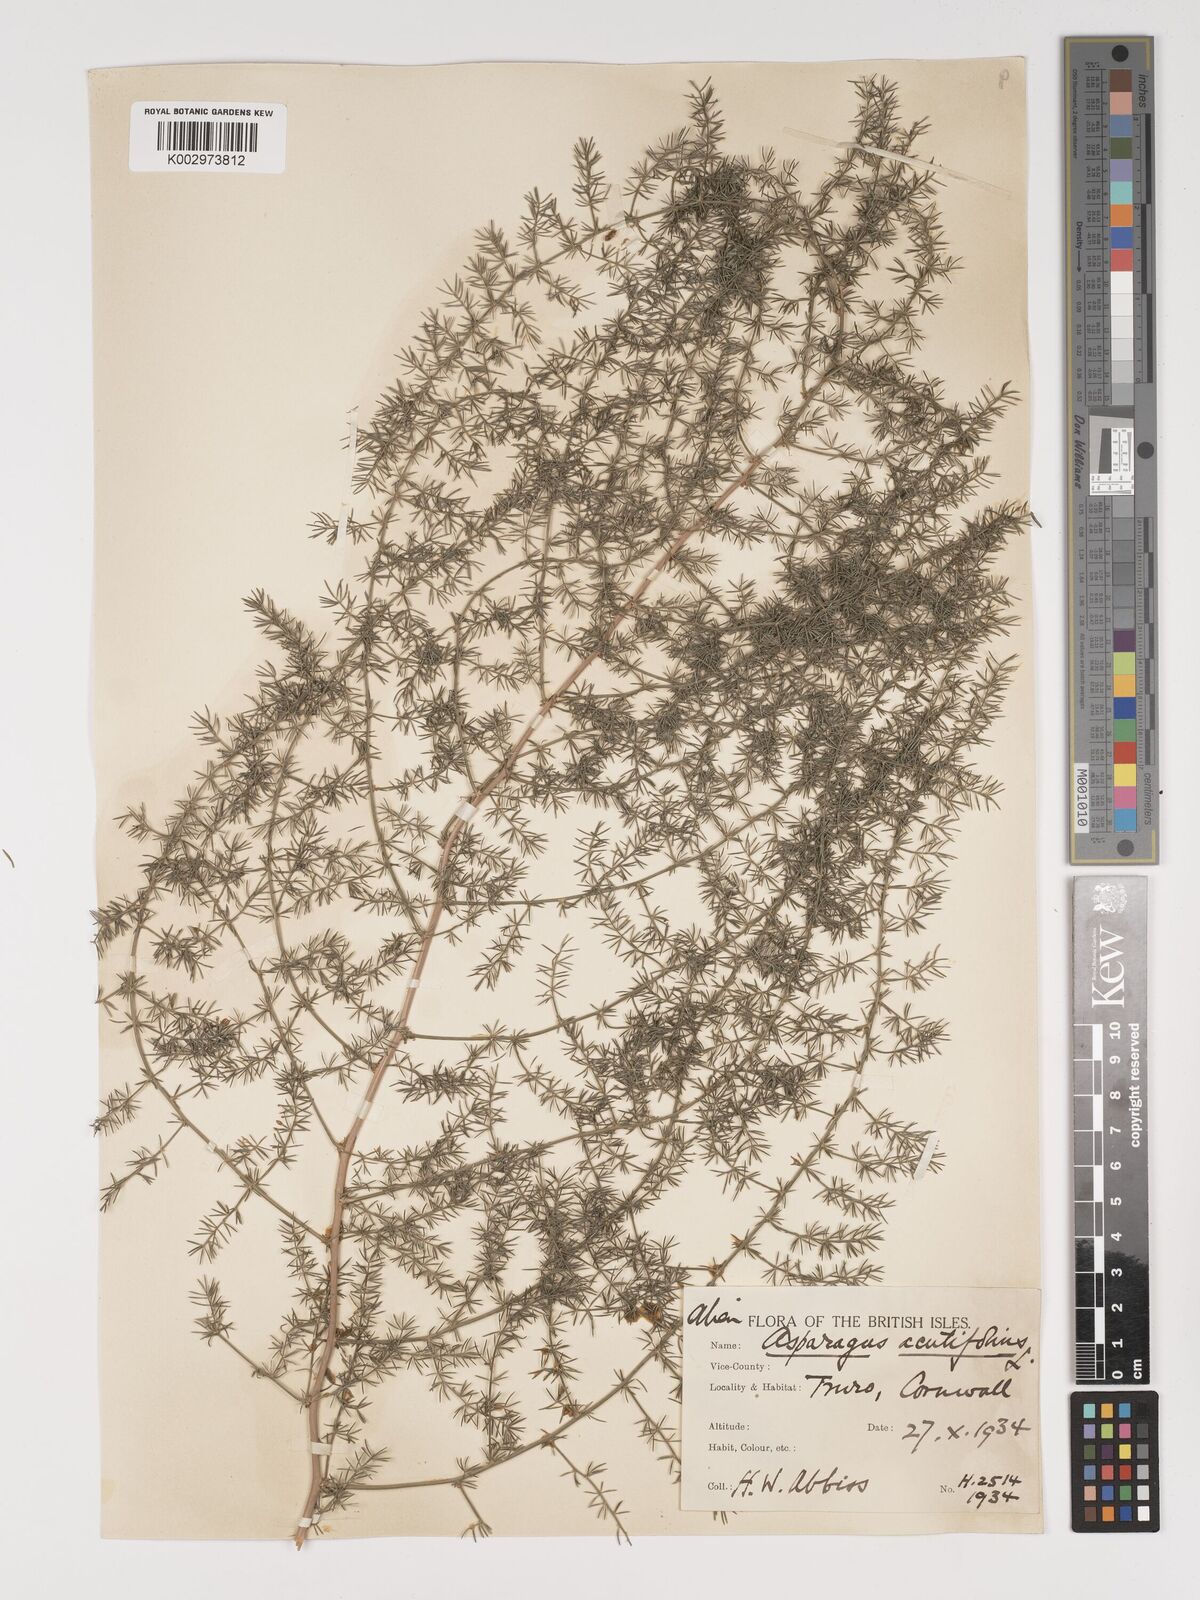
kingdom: Plantae
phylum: Tracheophyta
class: Liliopsida
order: Asparagales
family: Asparagaceae
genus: Asparagus
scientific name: Asparagus acutifolius
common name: Wild asparagus
